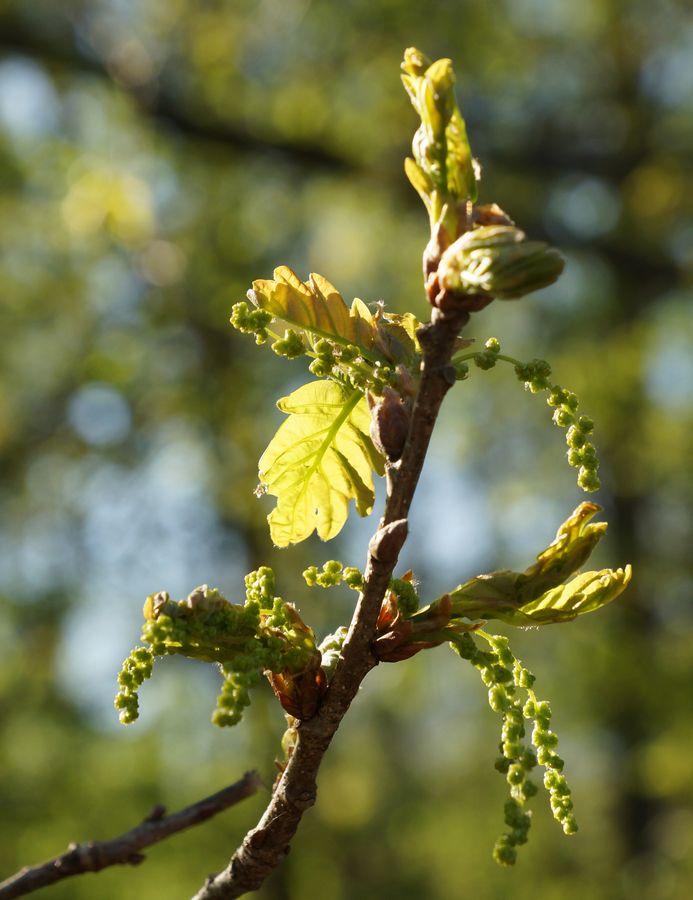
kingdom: Plantae
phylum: Tracheophyta
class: Magnoliopsida
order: Fagales
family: Fagaceae
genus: Quercus
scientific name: Quercus robur
